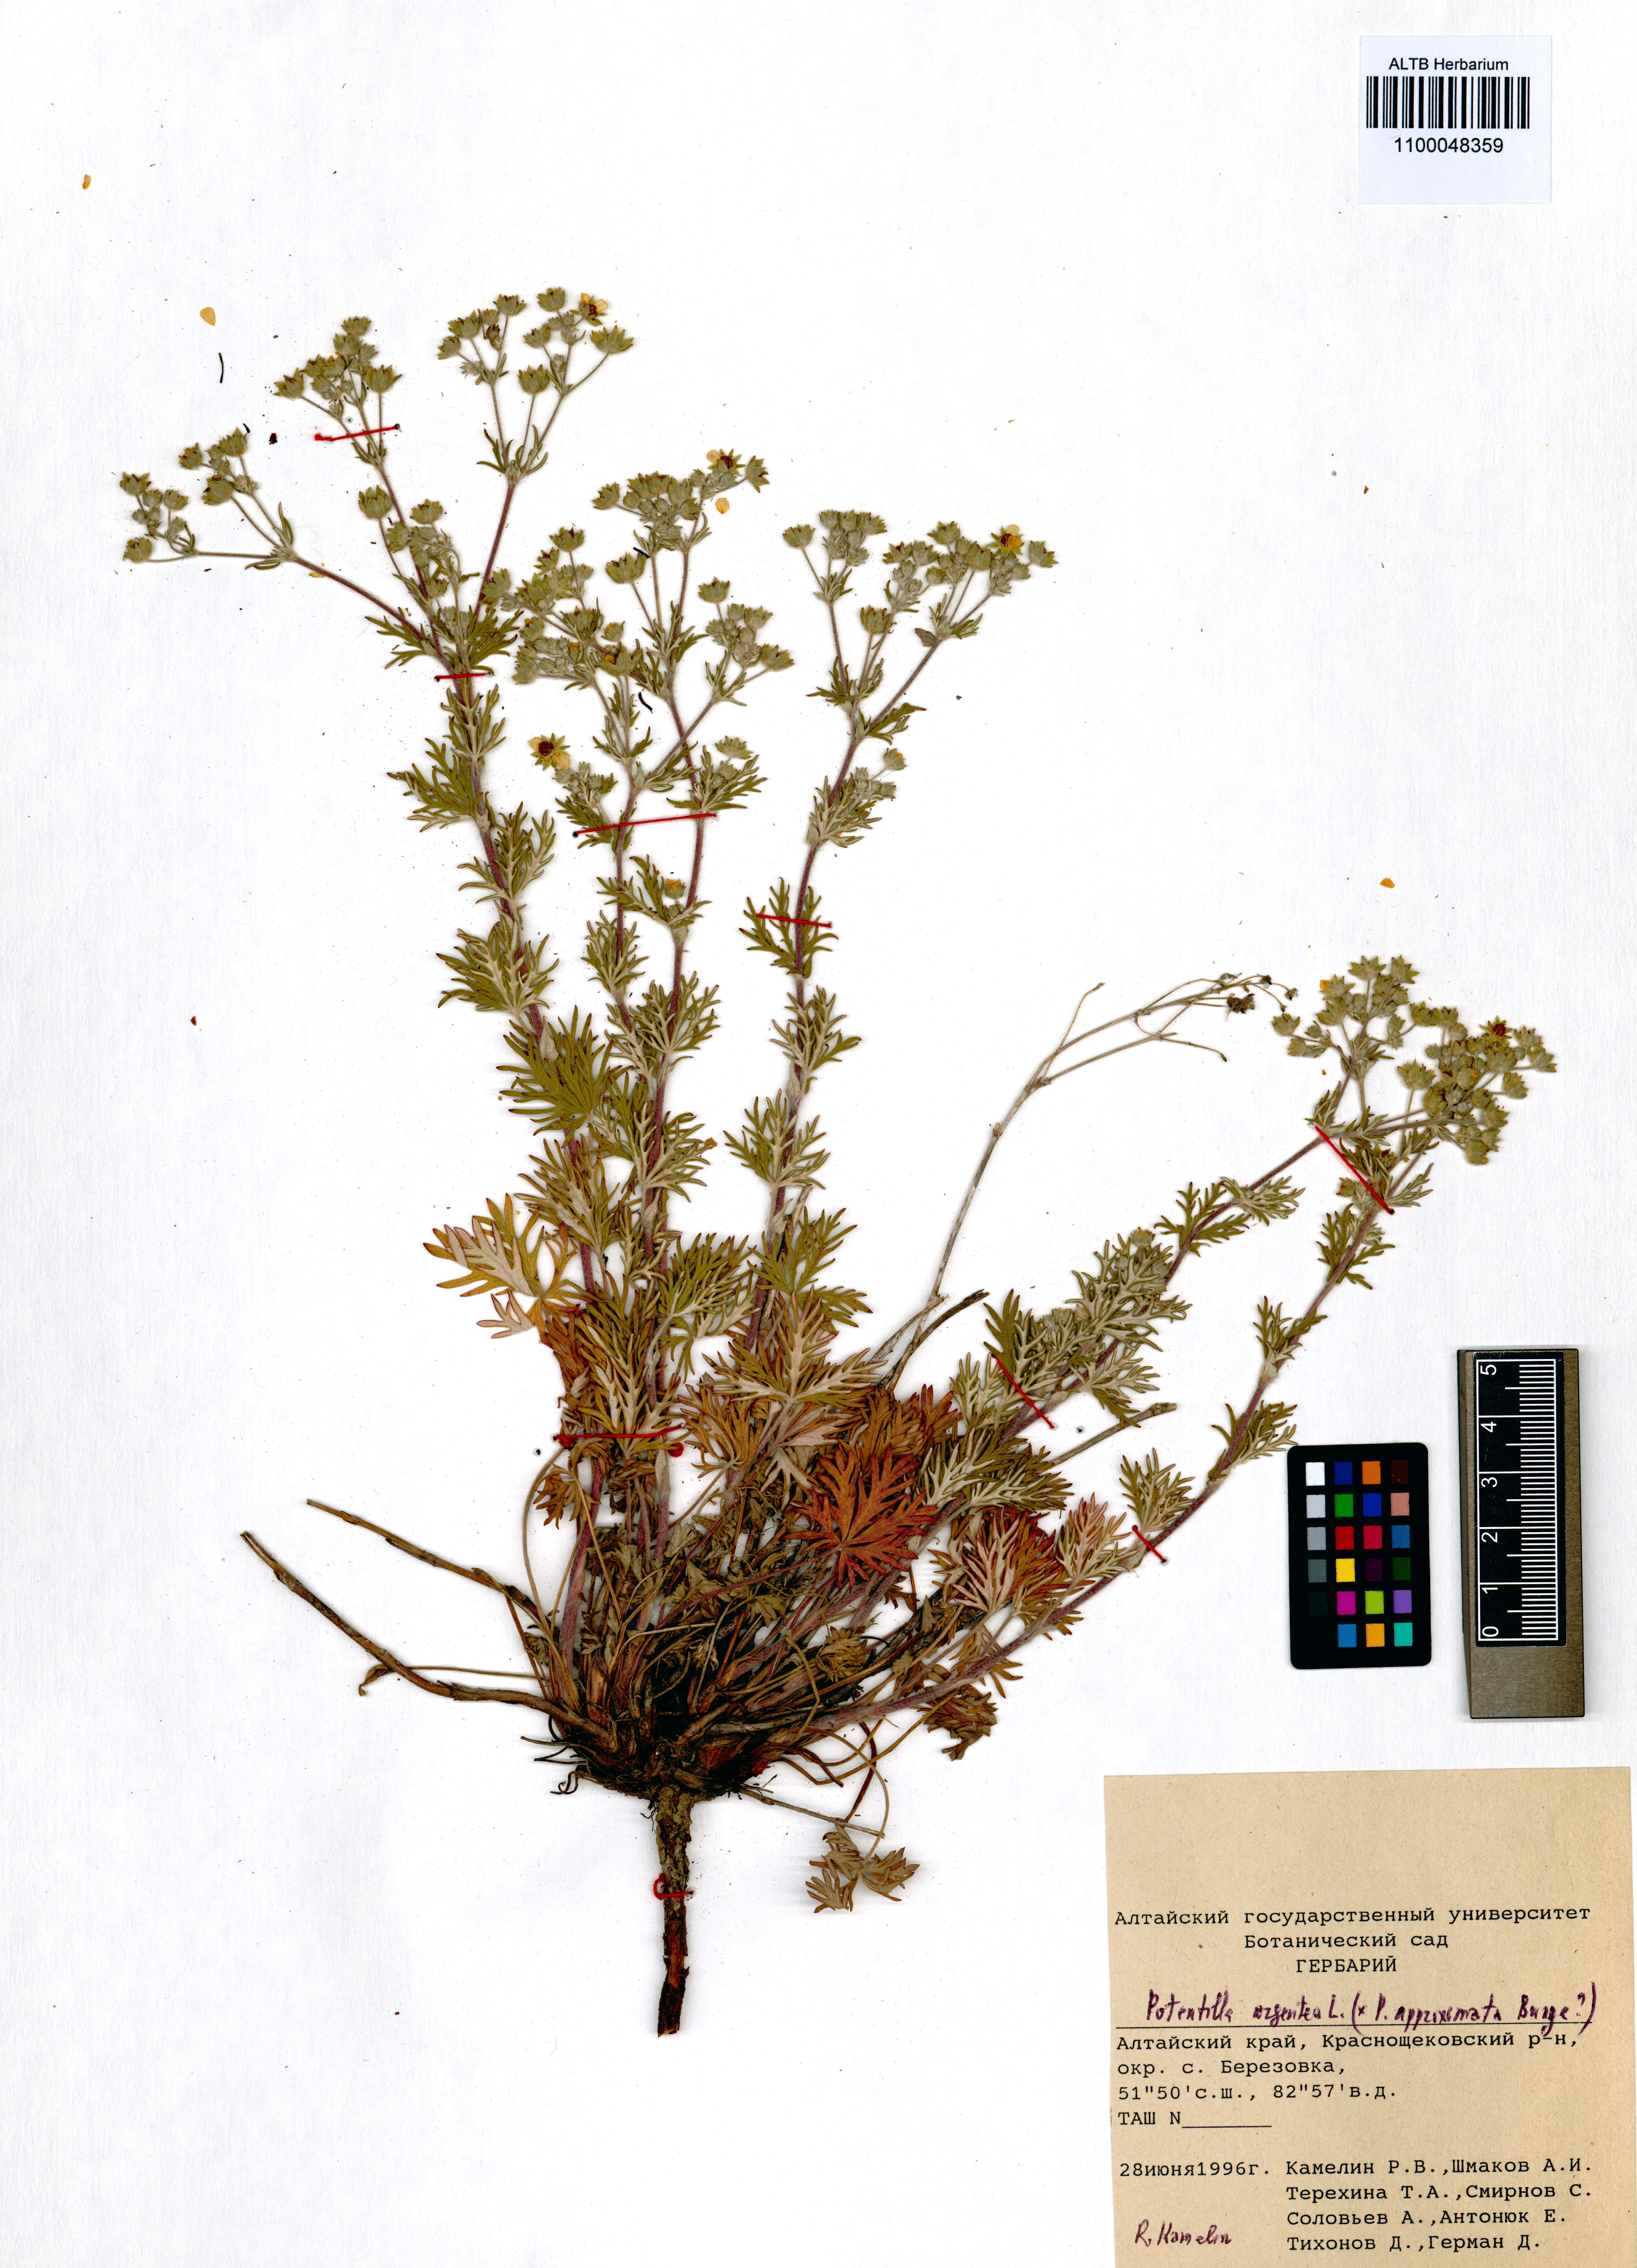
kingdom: Plantae
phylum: Tracheophyta
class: Magnoliopsida
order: Rosales
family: Rosaceae
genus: Potentilla
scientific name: Potentilla argentea
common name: Hoary cinquefoil
